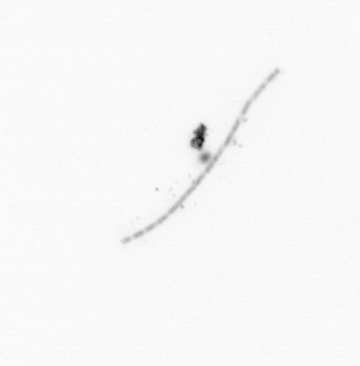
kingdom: Chromista
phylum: Ochrophyta
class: Bacillariophyceae
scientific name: Bacillariophyceae
